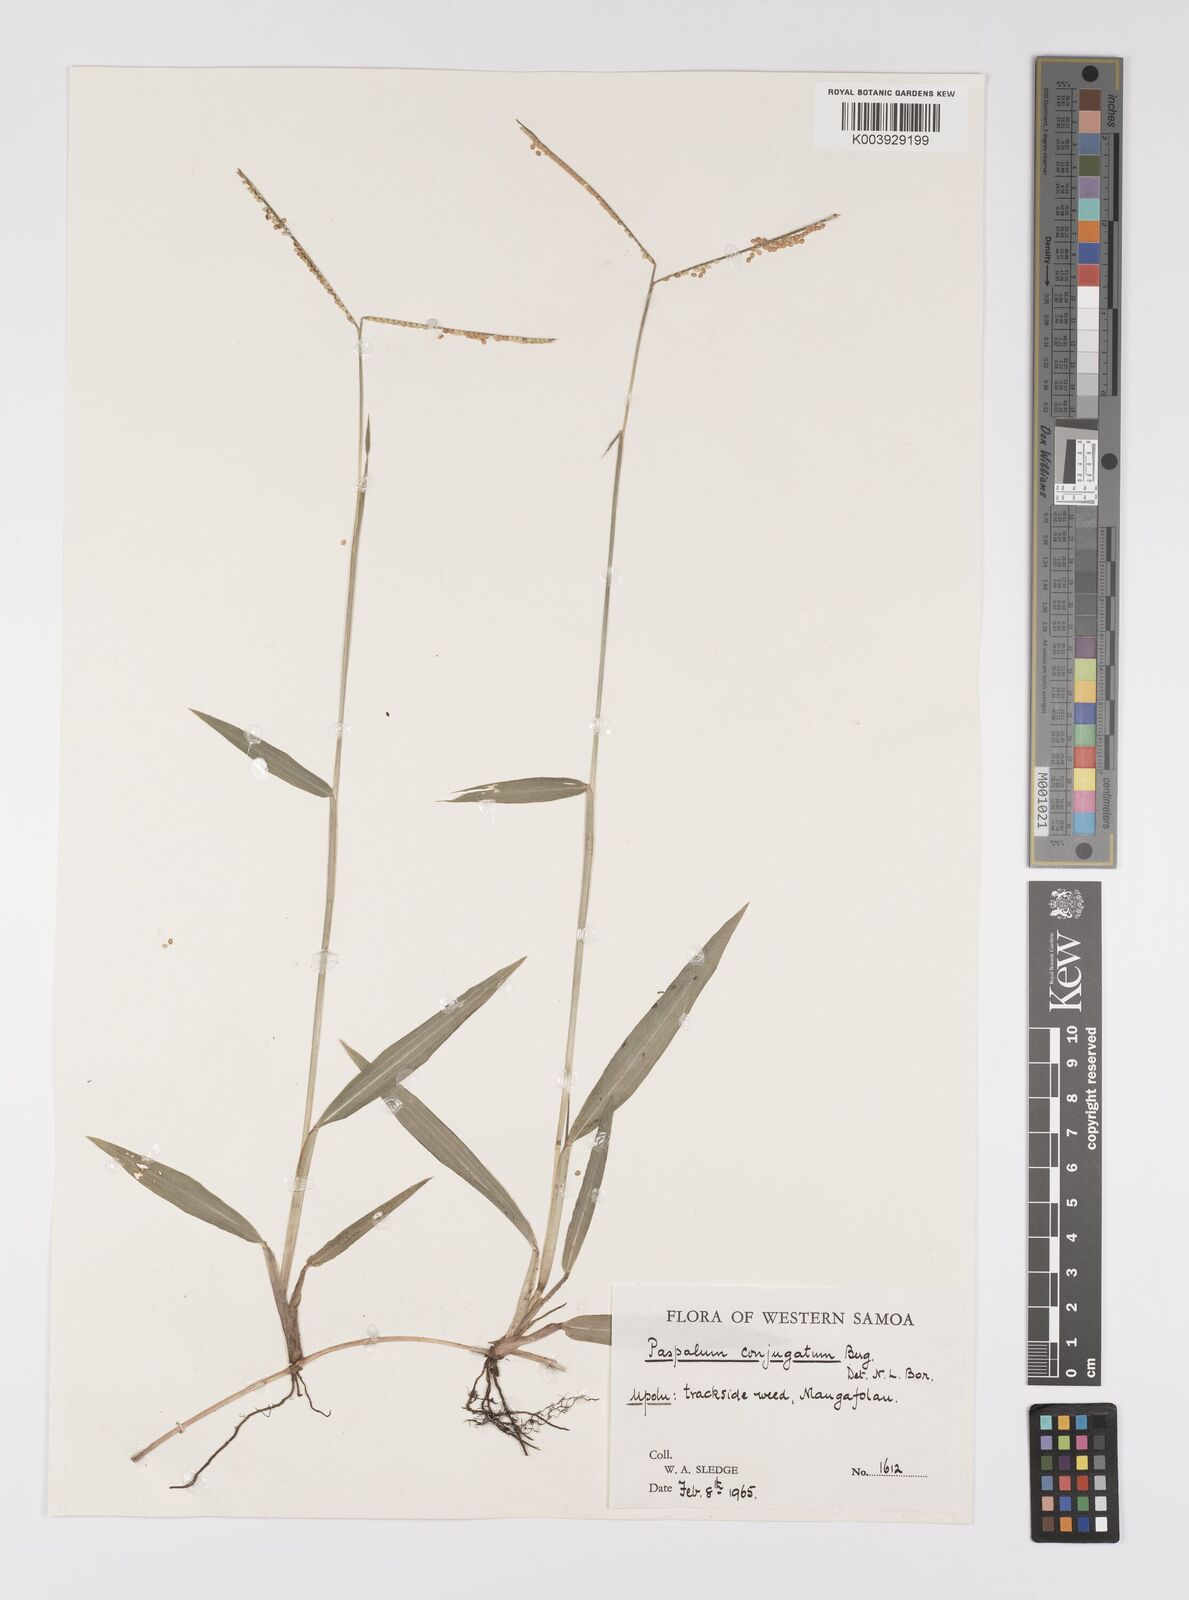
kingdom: Plantae
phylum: Tracheophyta
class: Liliopsida
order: Poales
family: Poaceae
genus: Paspalum
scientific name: Paspalum conjugatum
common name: Hilograss
